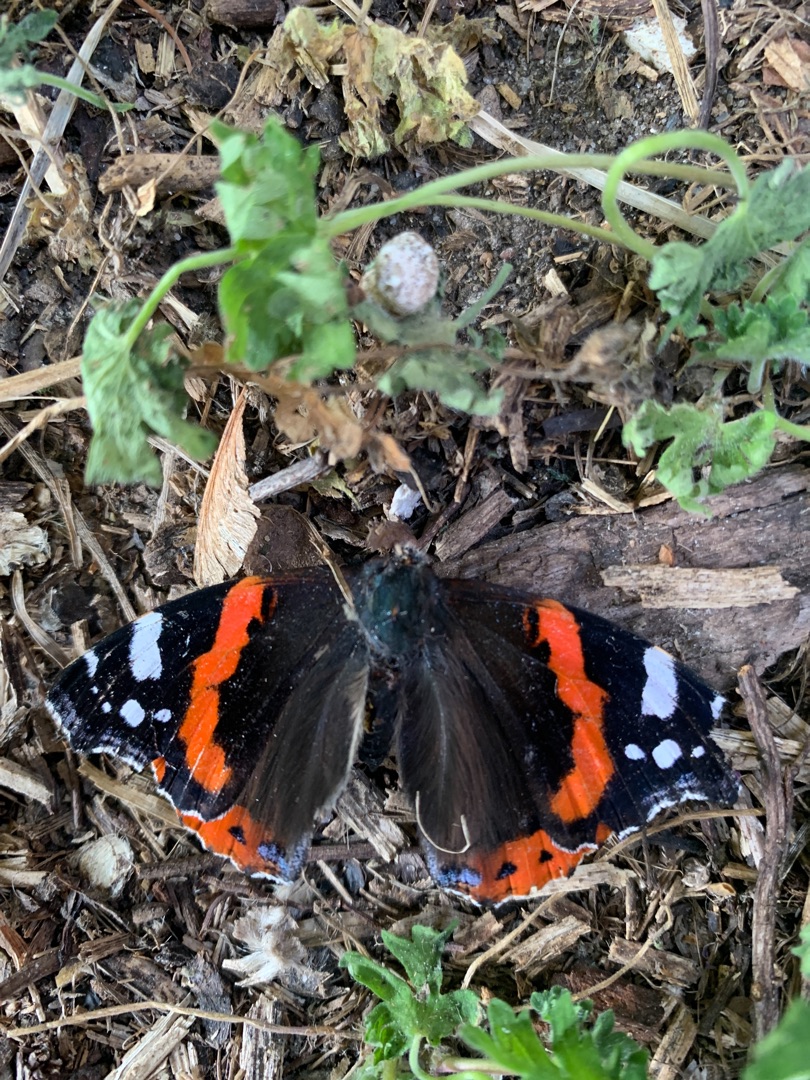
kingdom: Animalia
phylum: Arthropoda
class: Insecta
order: Lepidoptera
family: Nymphalidae
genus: Vanessa
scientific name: Vanessa atalanta
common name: Admiral
